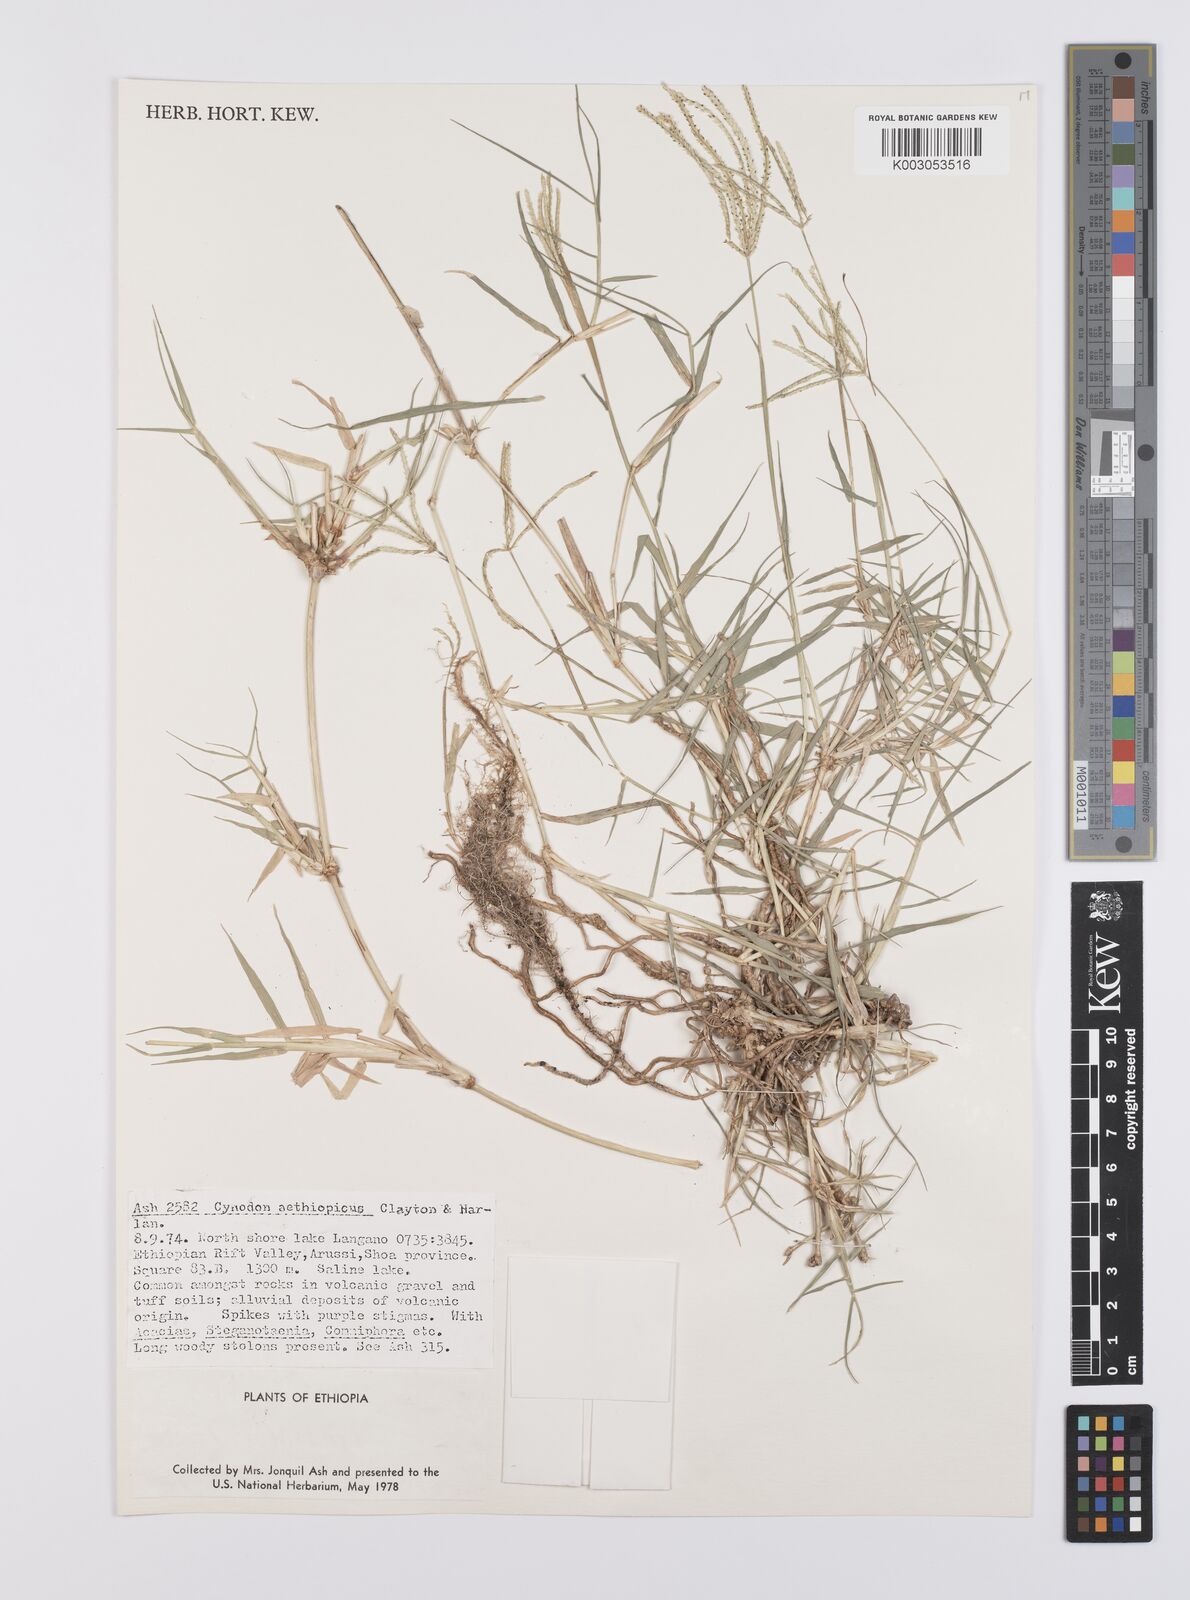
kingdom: Plantae
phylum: Tracheophyta
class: Liliopsida
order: Poales
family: Poaceae
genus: Cynodon
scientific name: Cynodon aethiopicus
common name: Ethiopian dogstooth grass
